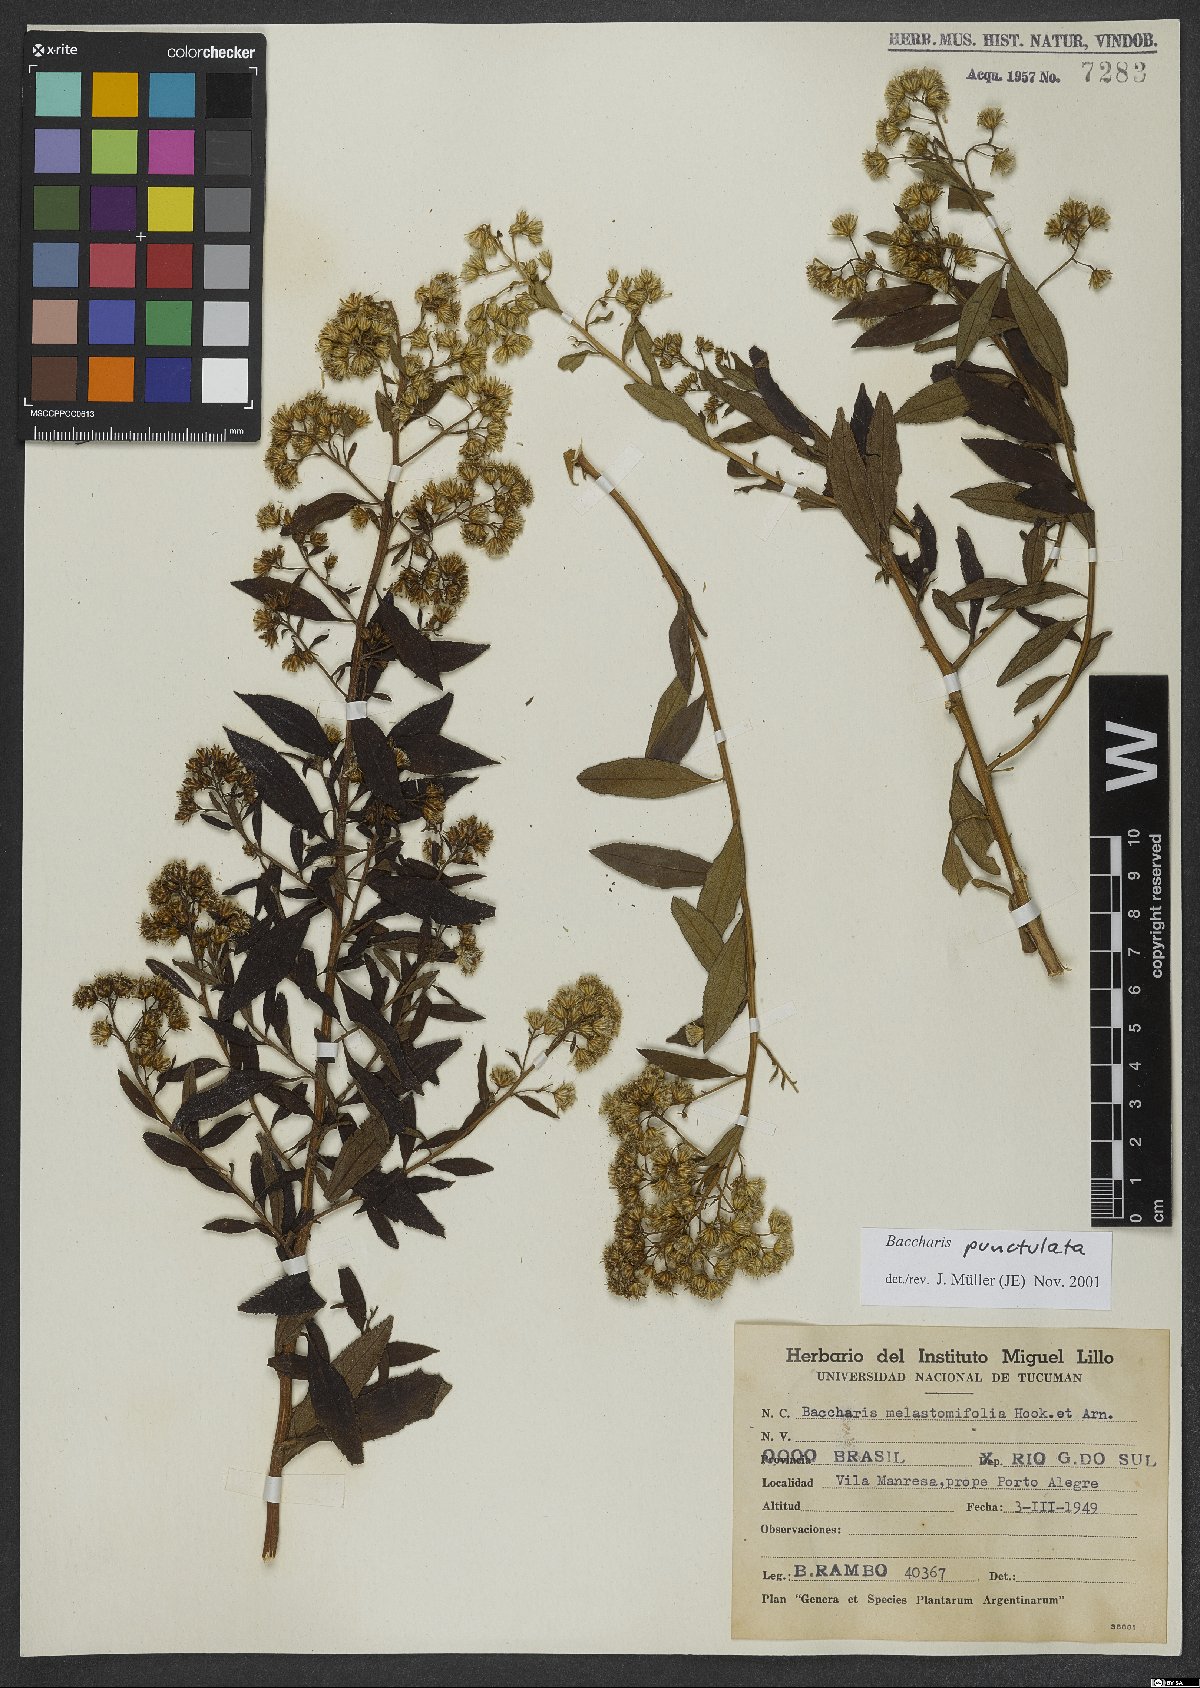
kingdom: Plantae
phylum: Tracheophyta
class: Magnoliopsida
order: Asterales
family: Asteraceae
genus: Baccharis
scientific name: Baccharis punctulata
